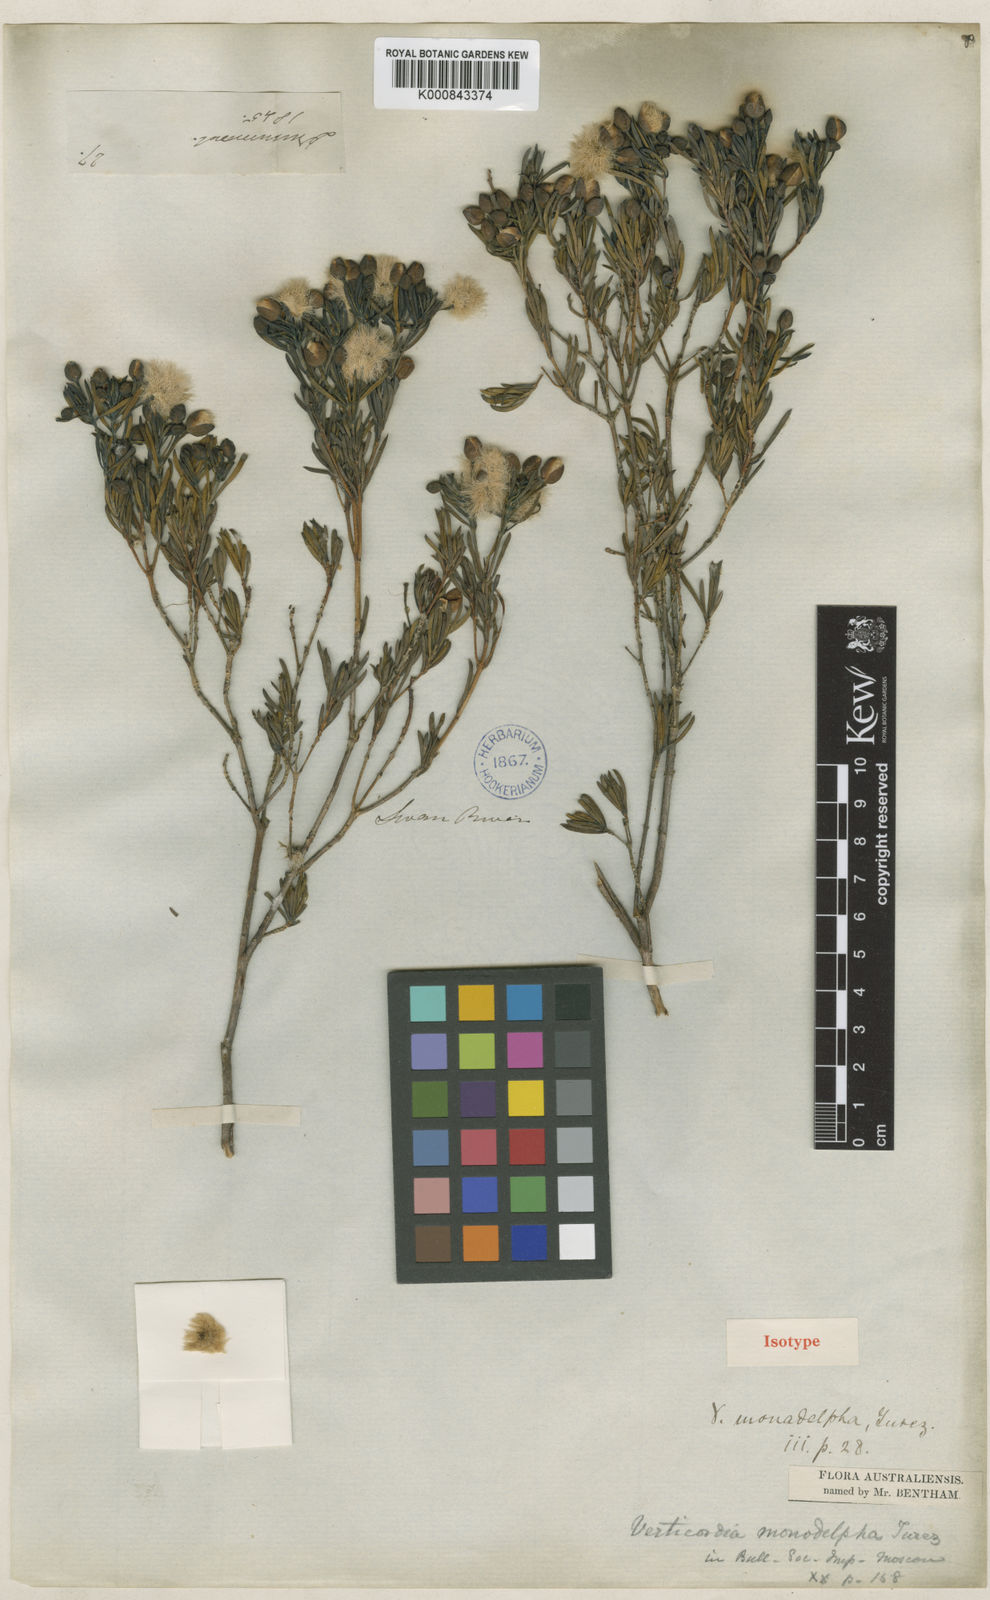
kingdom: Plantae
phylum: Tracheophyta
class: Magnoliopsida
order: Myrtales
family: Myrtaceae
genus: Verticordia
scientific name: Verticordia monadelpha
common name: Woolly feather-flower
